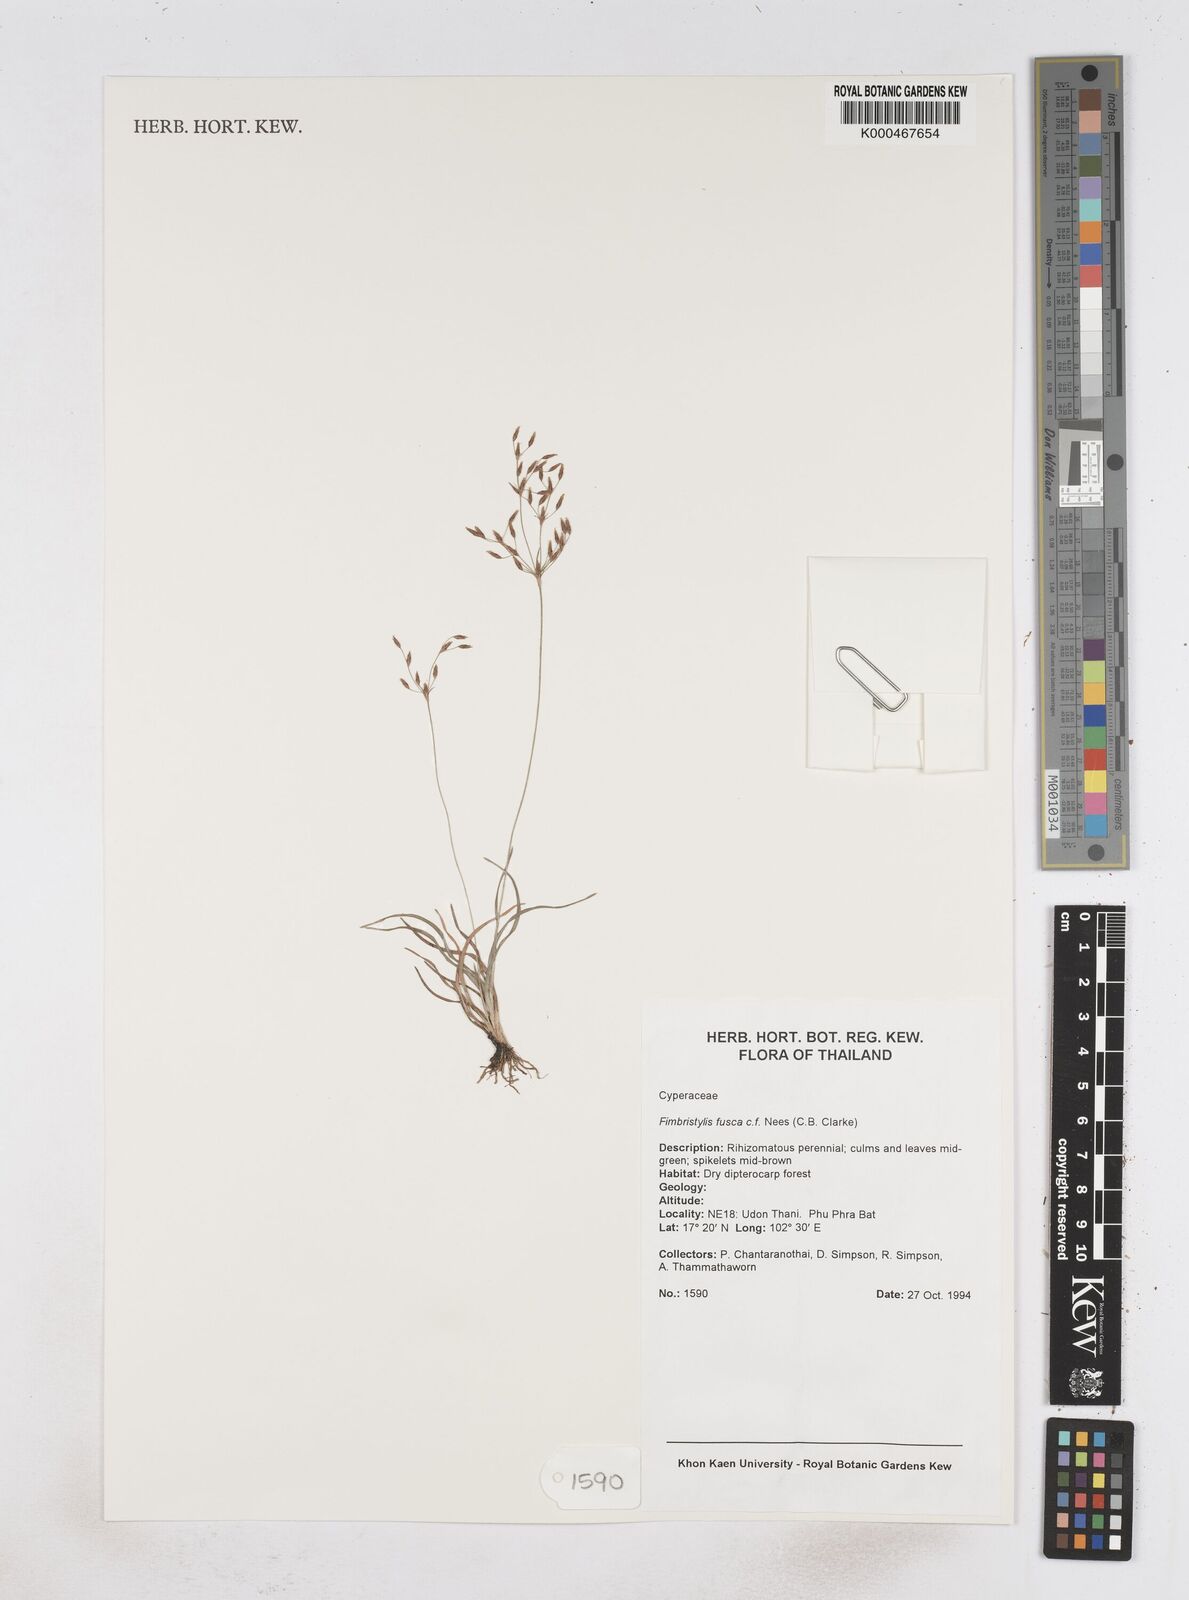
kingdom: Plantae
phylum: Tracheophyta
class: Liliopsida
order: Poales
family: Cyperaceae
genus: Fimbristylis
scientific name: Fimbristylis fusca
